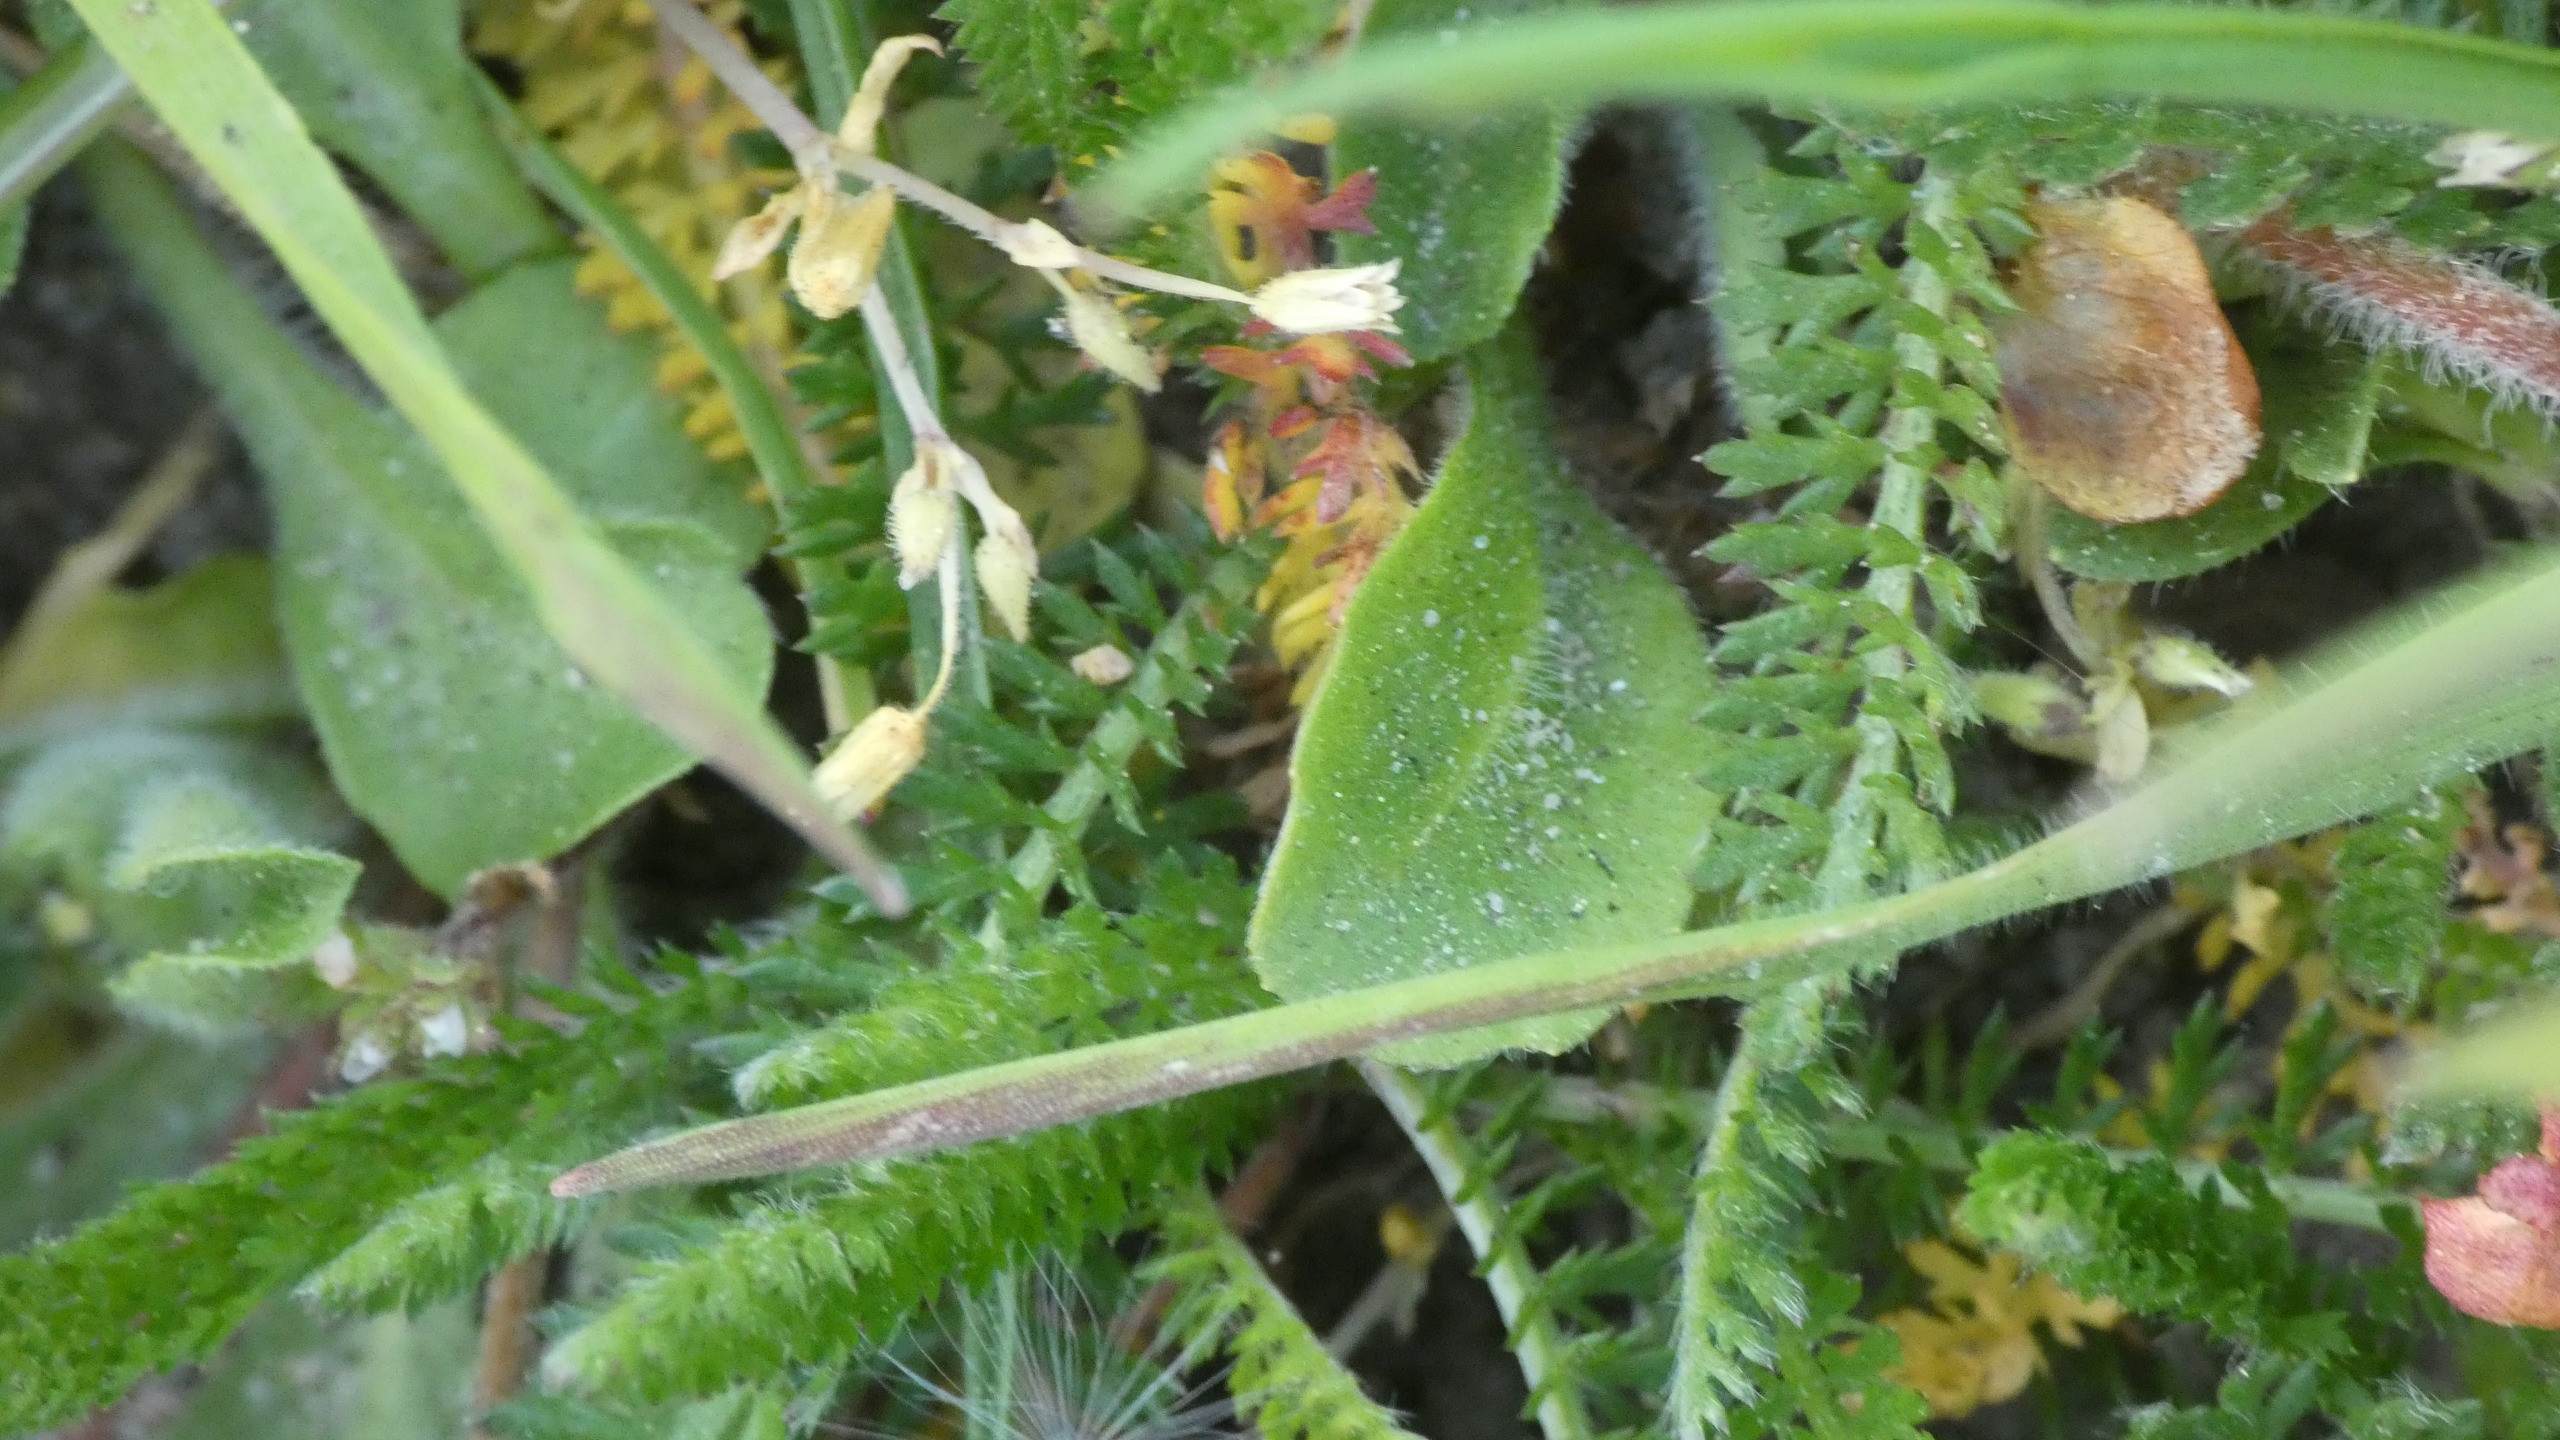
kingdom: Plantae
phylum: Tracheophyta
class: Magnoliopsida
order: Asterales
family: Asteraceae
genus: Bellis
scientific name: Bellis perennis
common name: Tusindfryd
